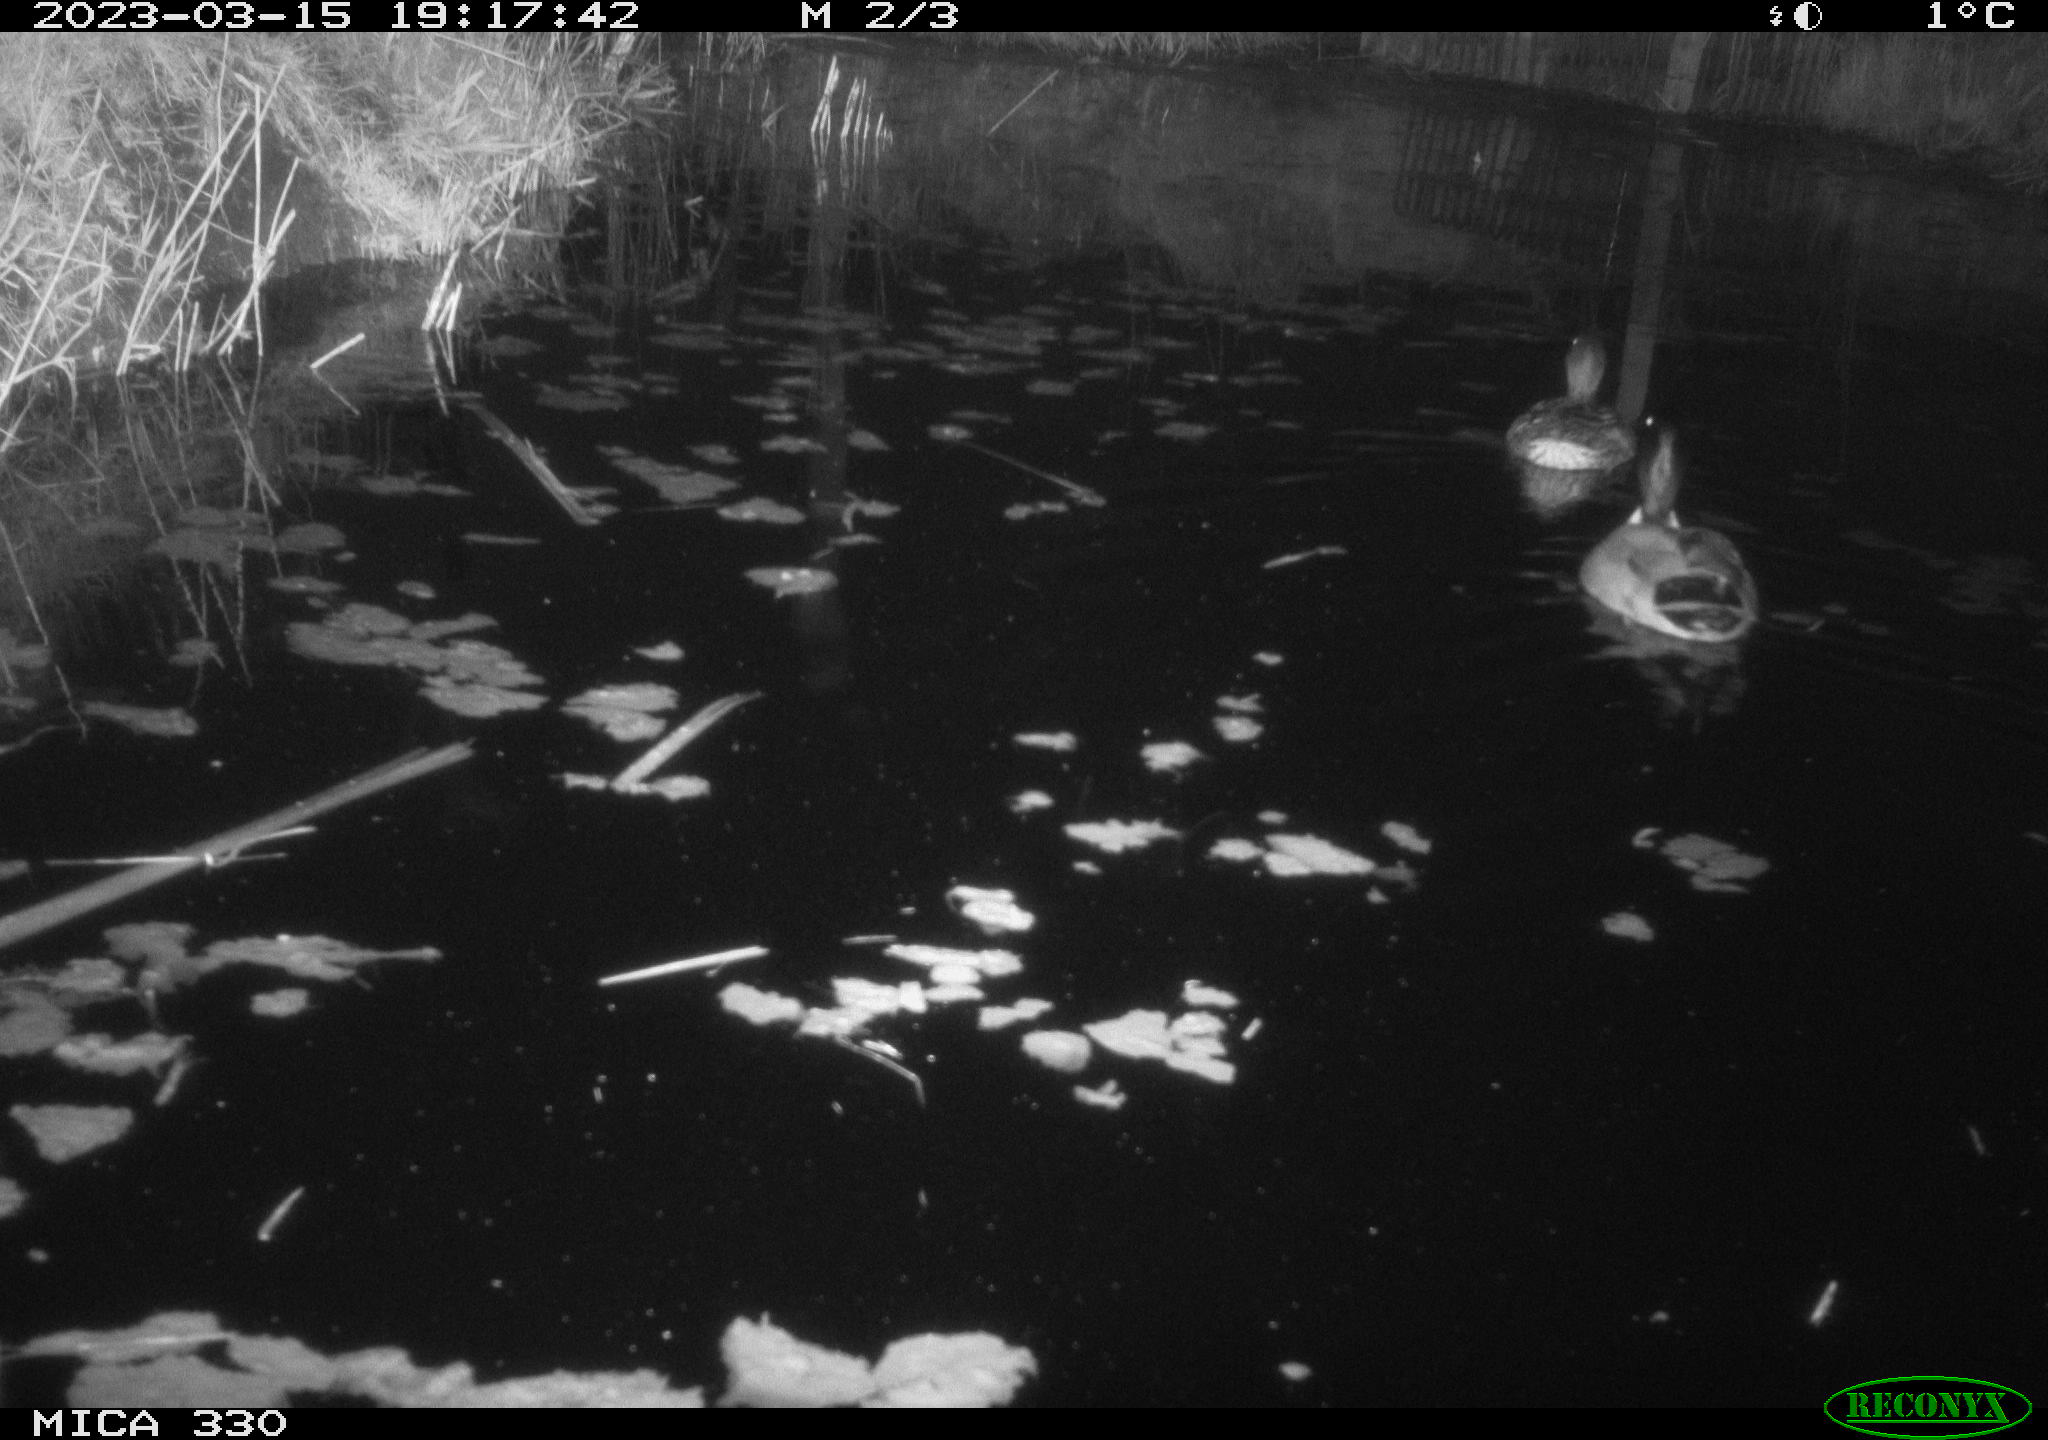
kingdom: Animalia
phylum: Chordata
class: Aves
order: Anseriformes
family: Anatidae
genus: Anas
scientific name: Anas
